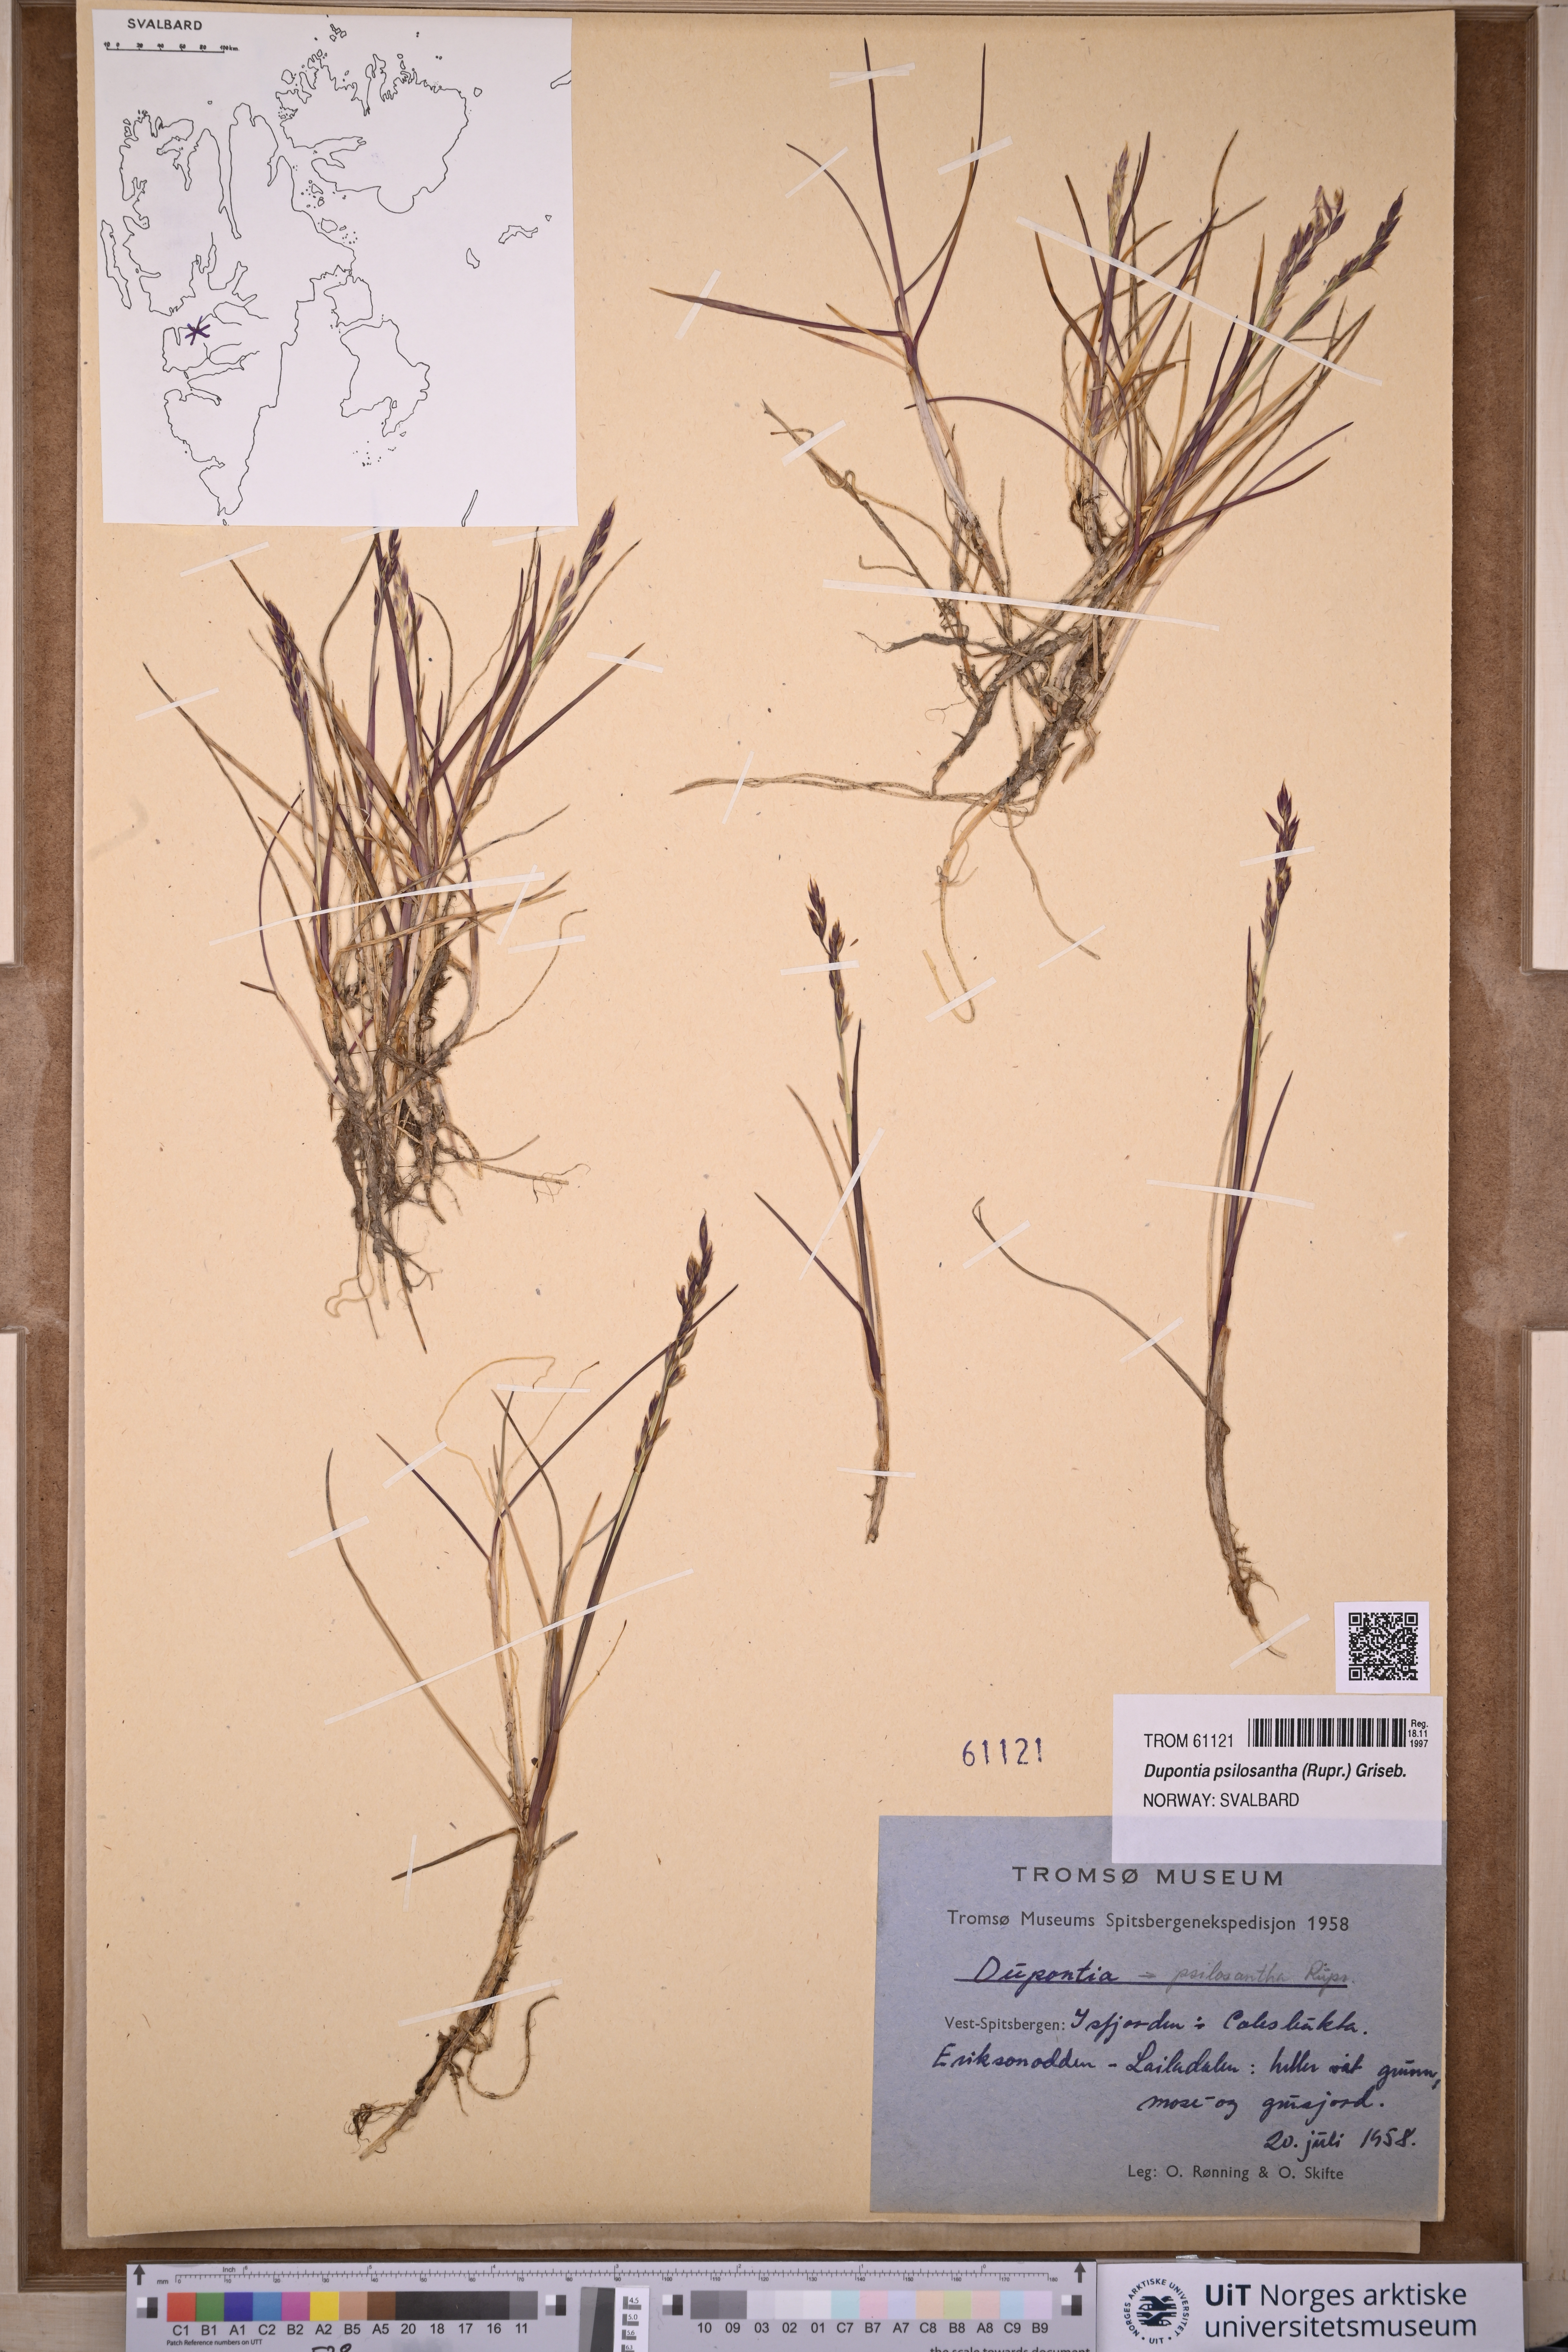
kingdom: Plantae
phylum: Tracheophyta
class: Liliopsida
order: Poales
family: Poaceae
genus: Dupontia
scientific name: Dupontia fisheri
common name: Tundra grass
